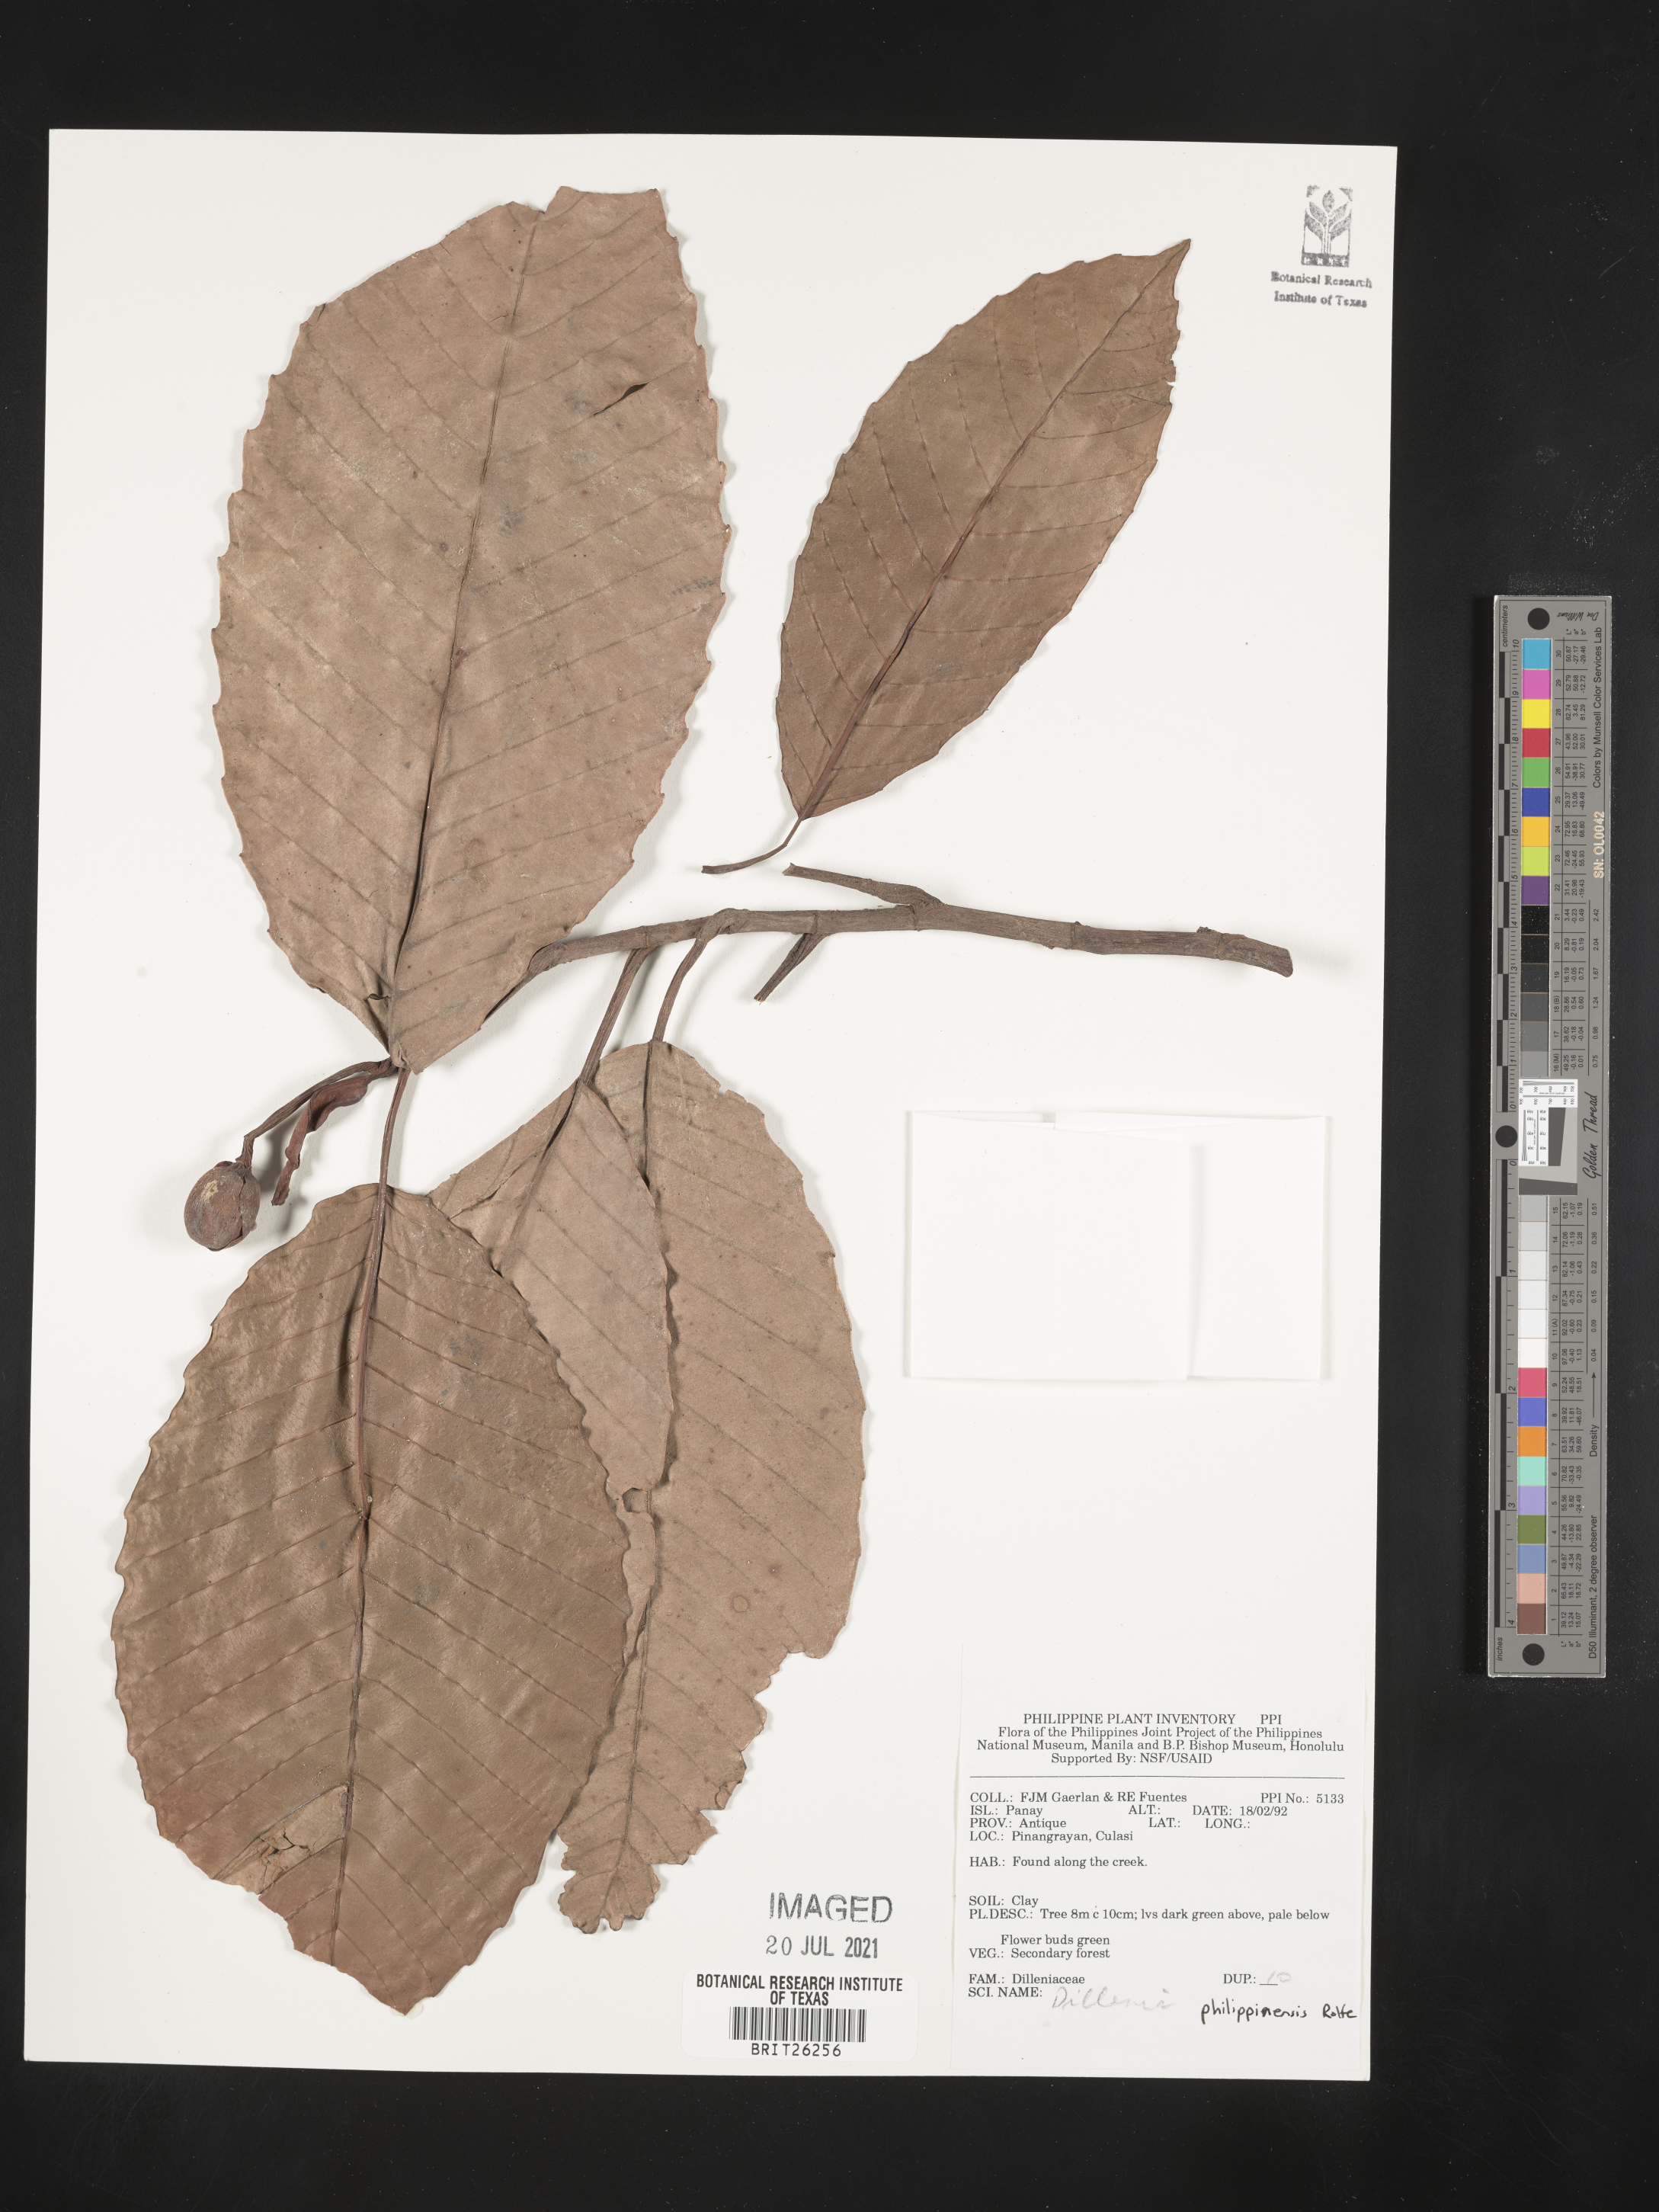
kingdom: Plantae
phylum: Tracheophyta
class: Magnoliopsida
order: Dilleniales
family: Dilleniaceae
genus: Dillenia
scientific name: Dillenia
